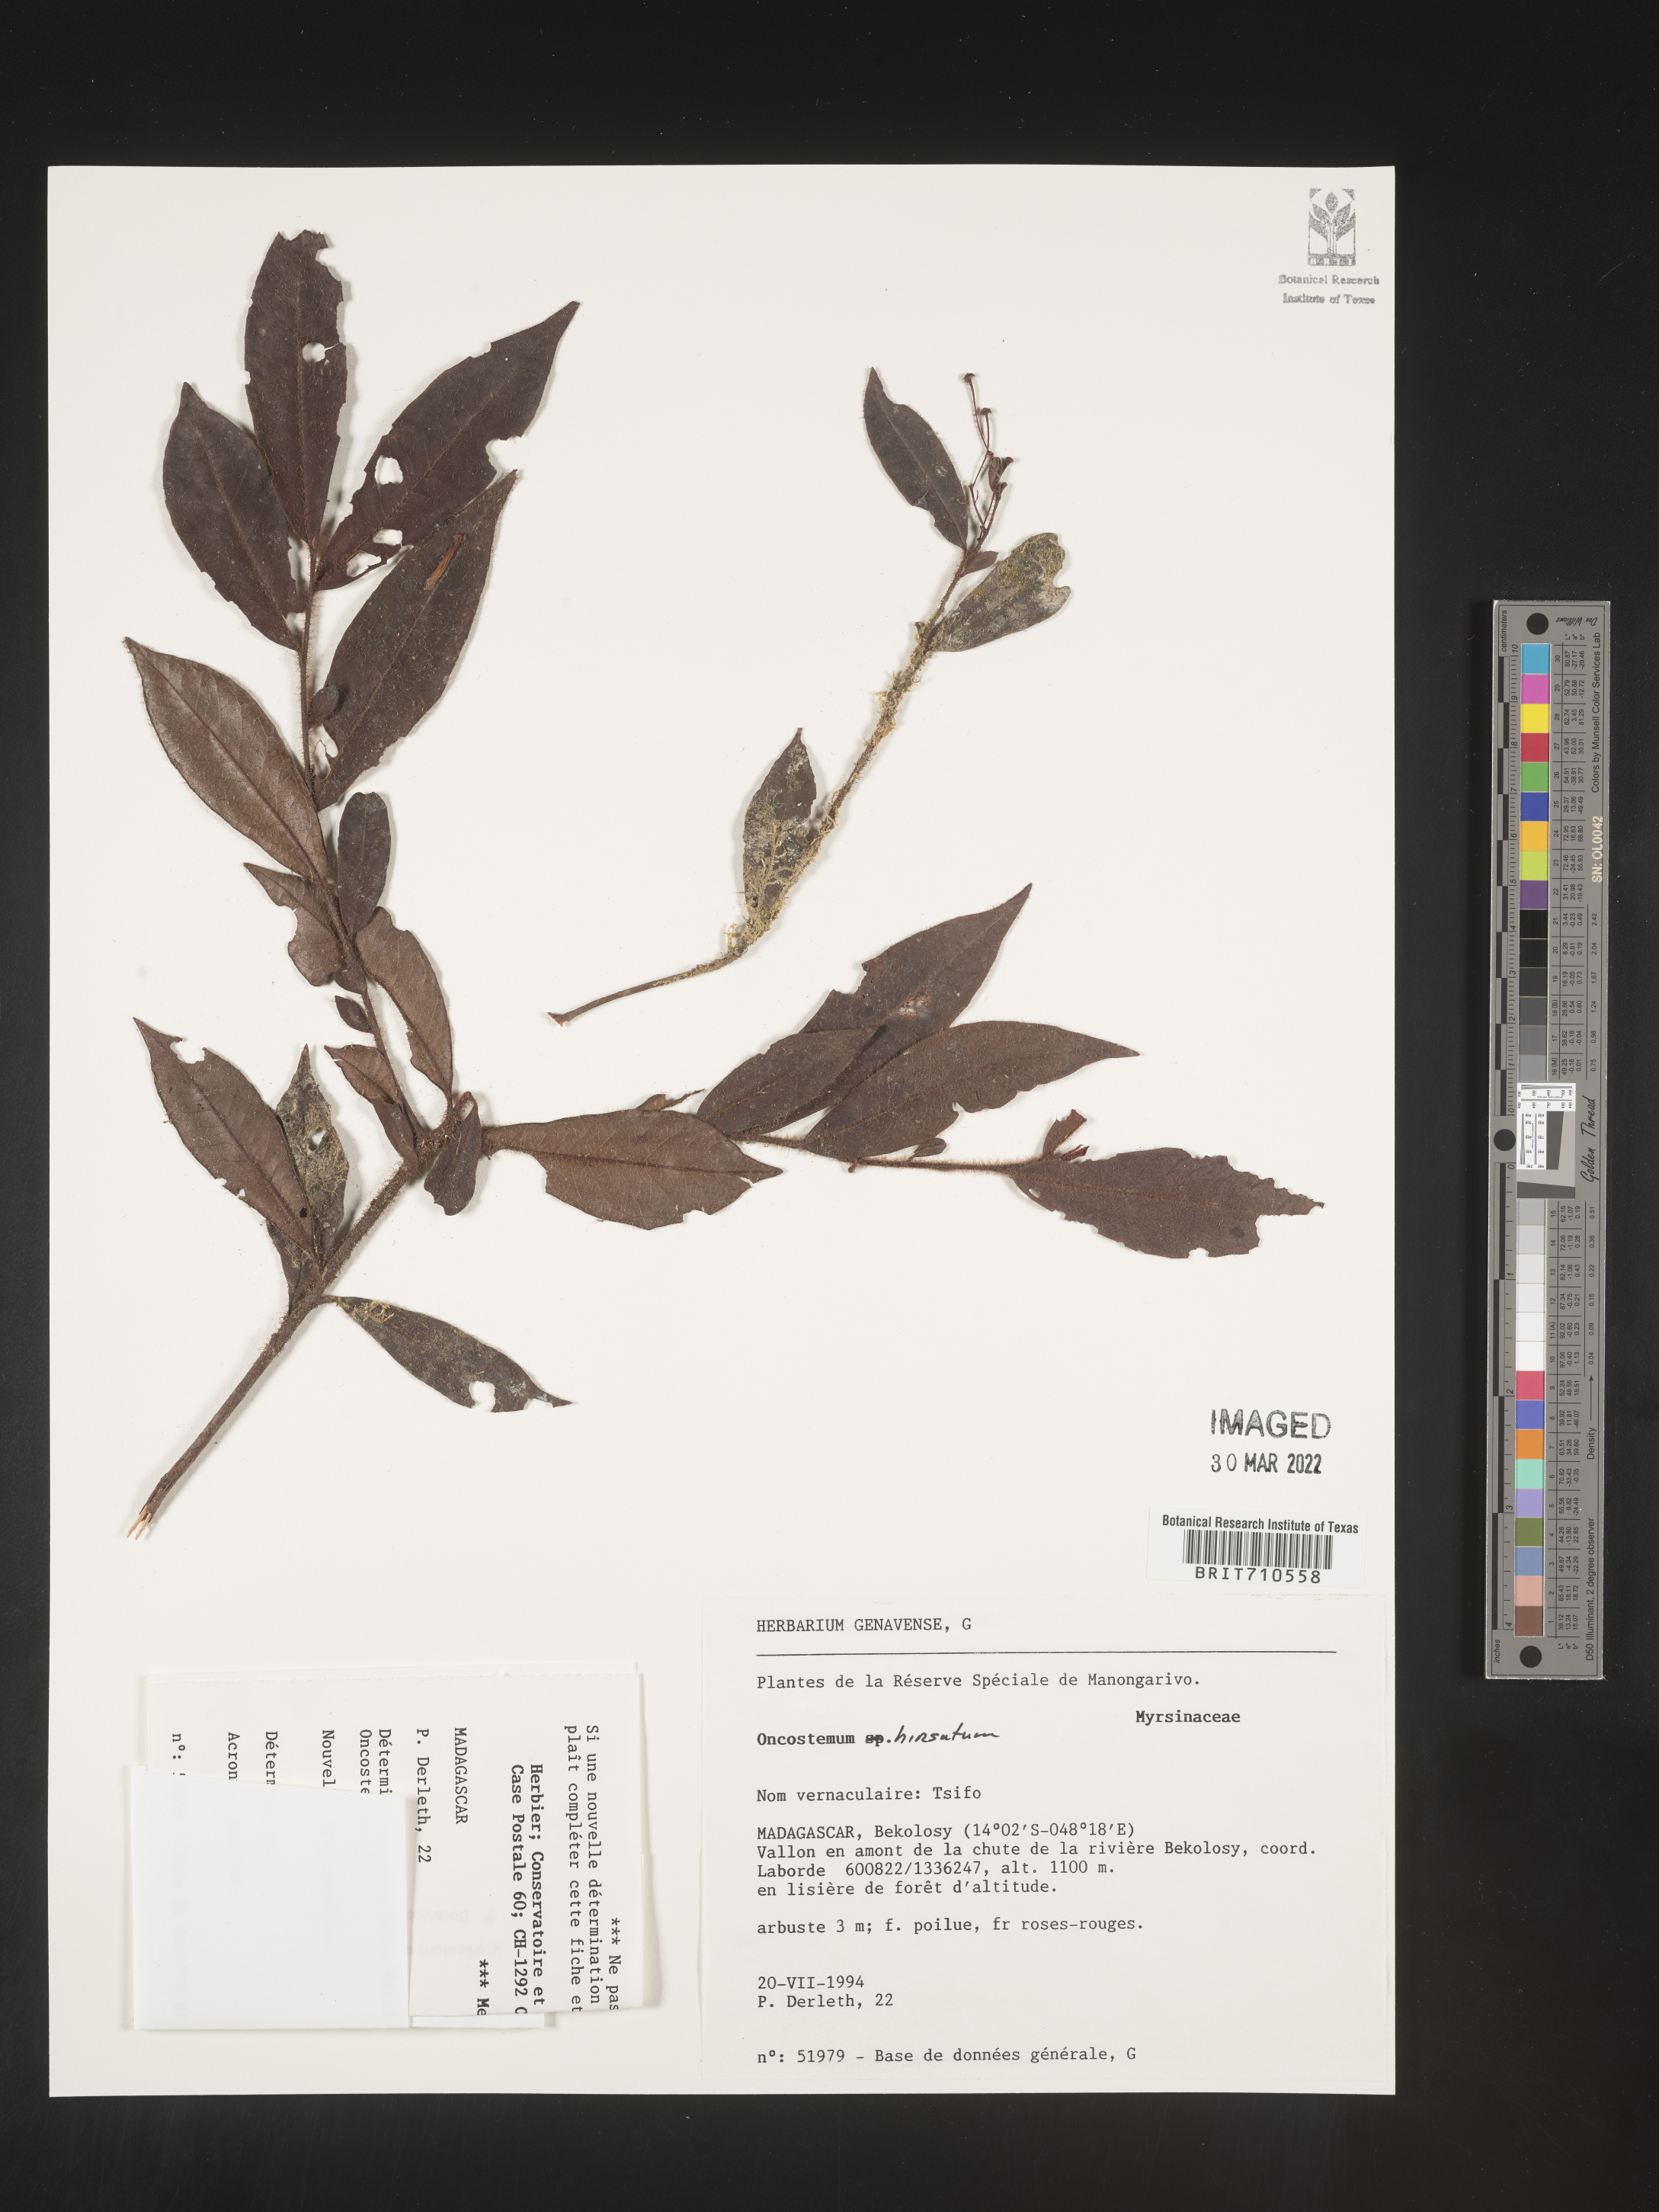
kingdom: Plantae
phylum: Tracheophyta
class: Magnoliopsida
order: Ericales
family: Primulaceae
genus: Oncostemum
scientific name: Oncostemum
